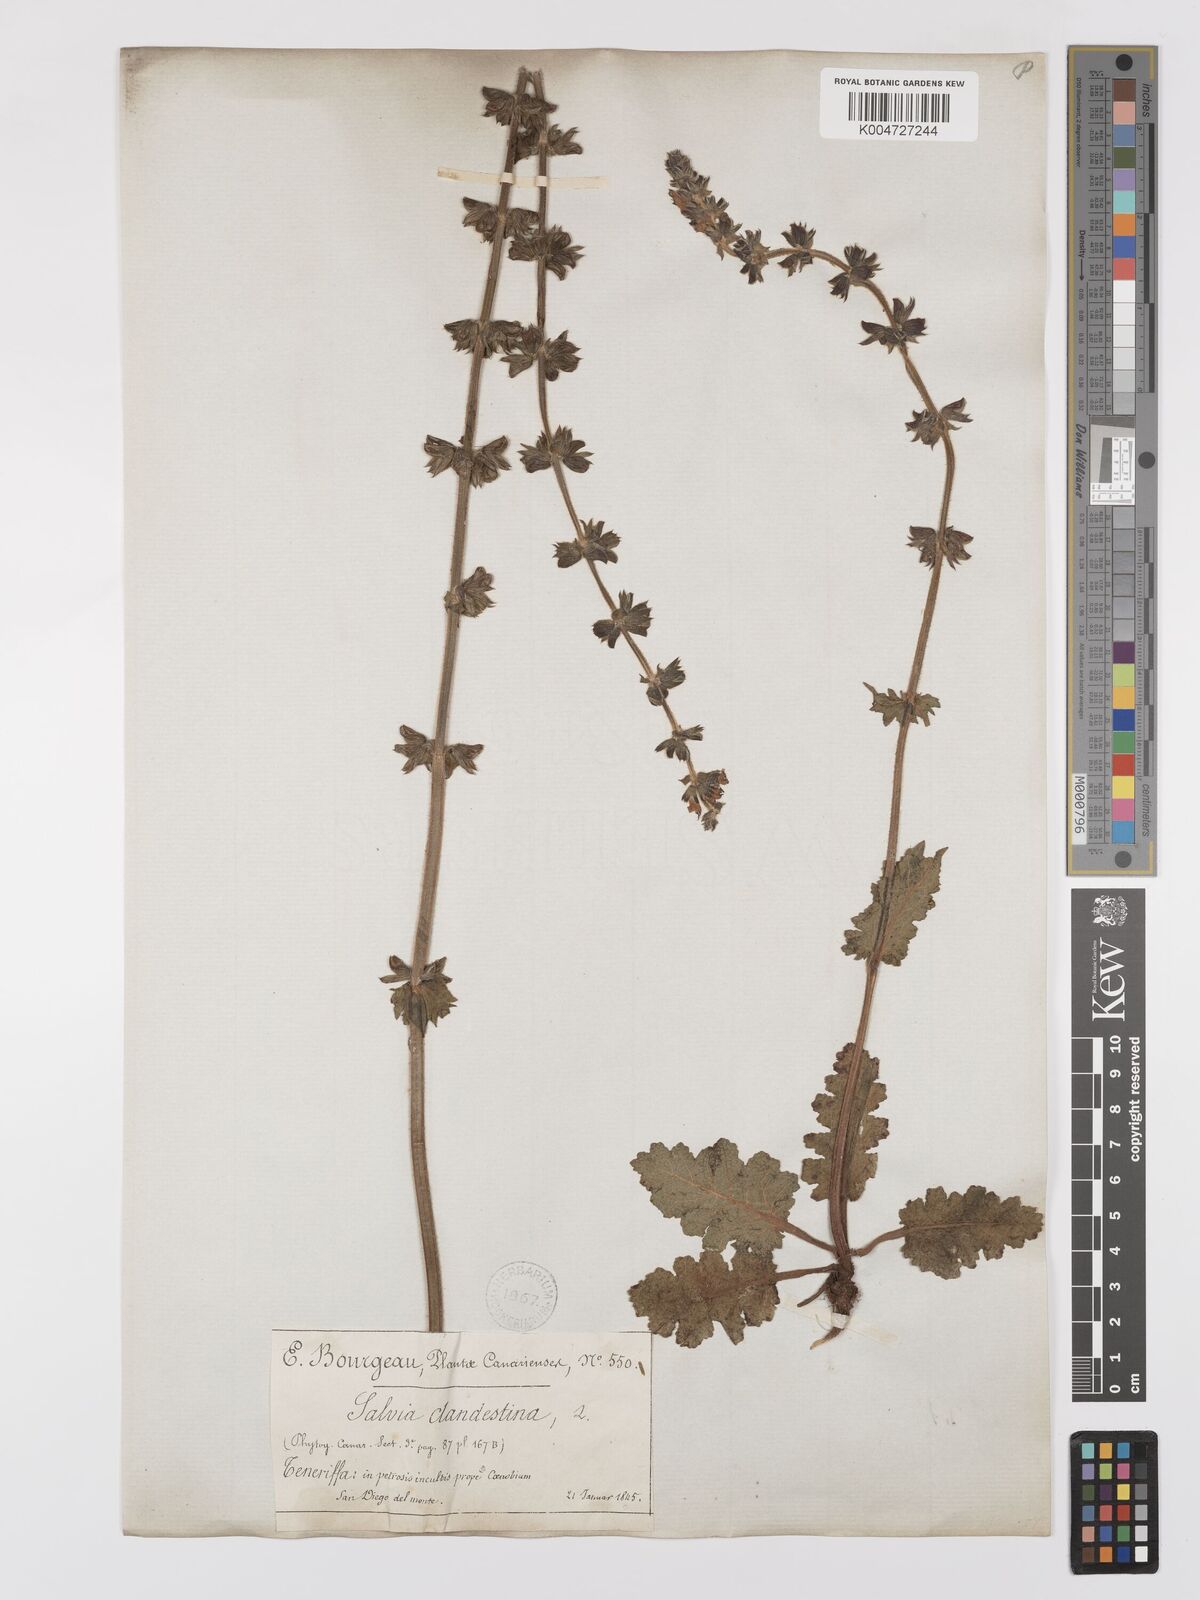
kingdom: Plantae
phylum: Tracheophyta
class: Magnoliopsida
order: Lamiales
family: Lamiaceae
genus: Salvia
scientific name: Salvia verbenaca
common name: Wild clary
